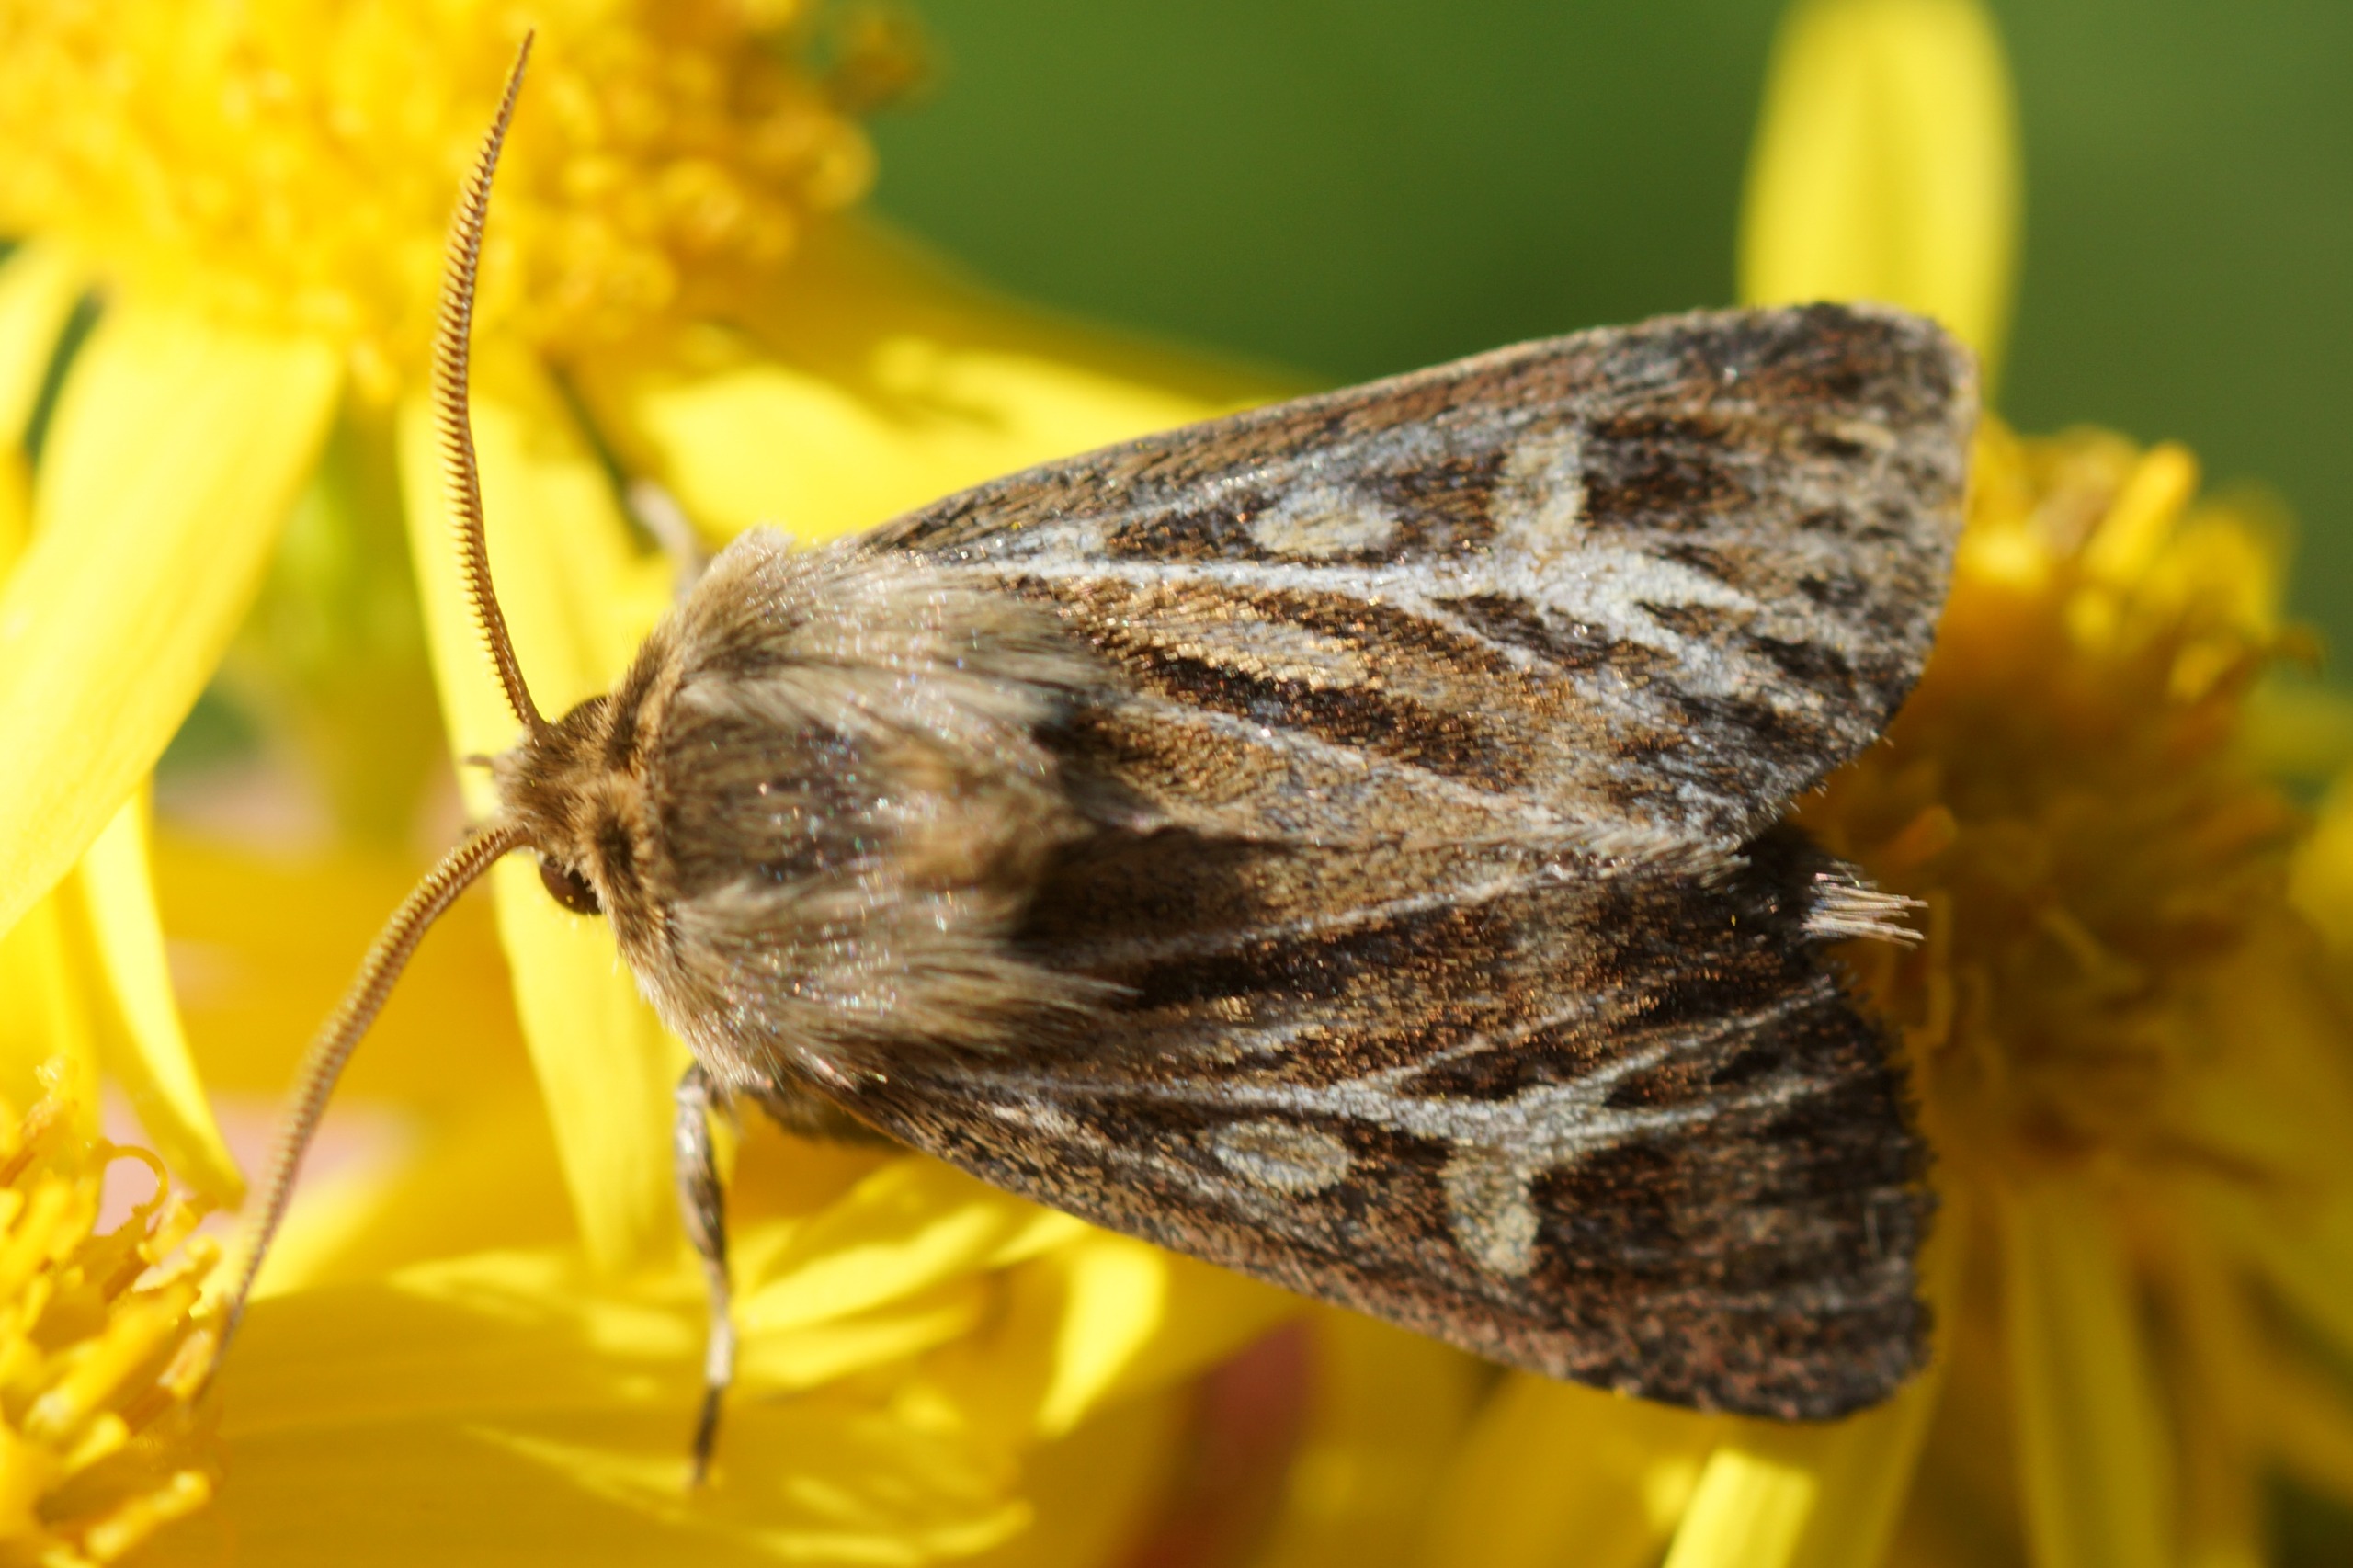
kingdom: Animalia
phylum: Arthropoda
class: Insecta
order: Lepidoptera
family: Noctuidae
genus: Cerapteryx
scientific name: Cerapteryx graminis
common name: Mosebunkeugle
